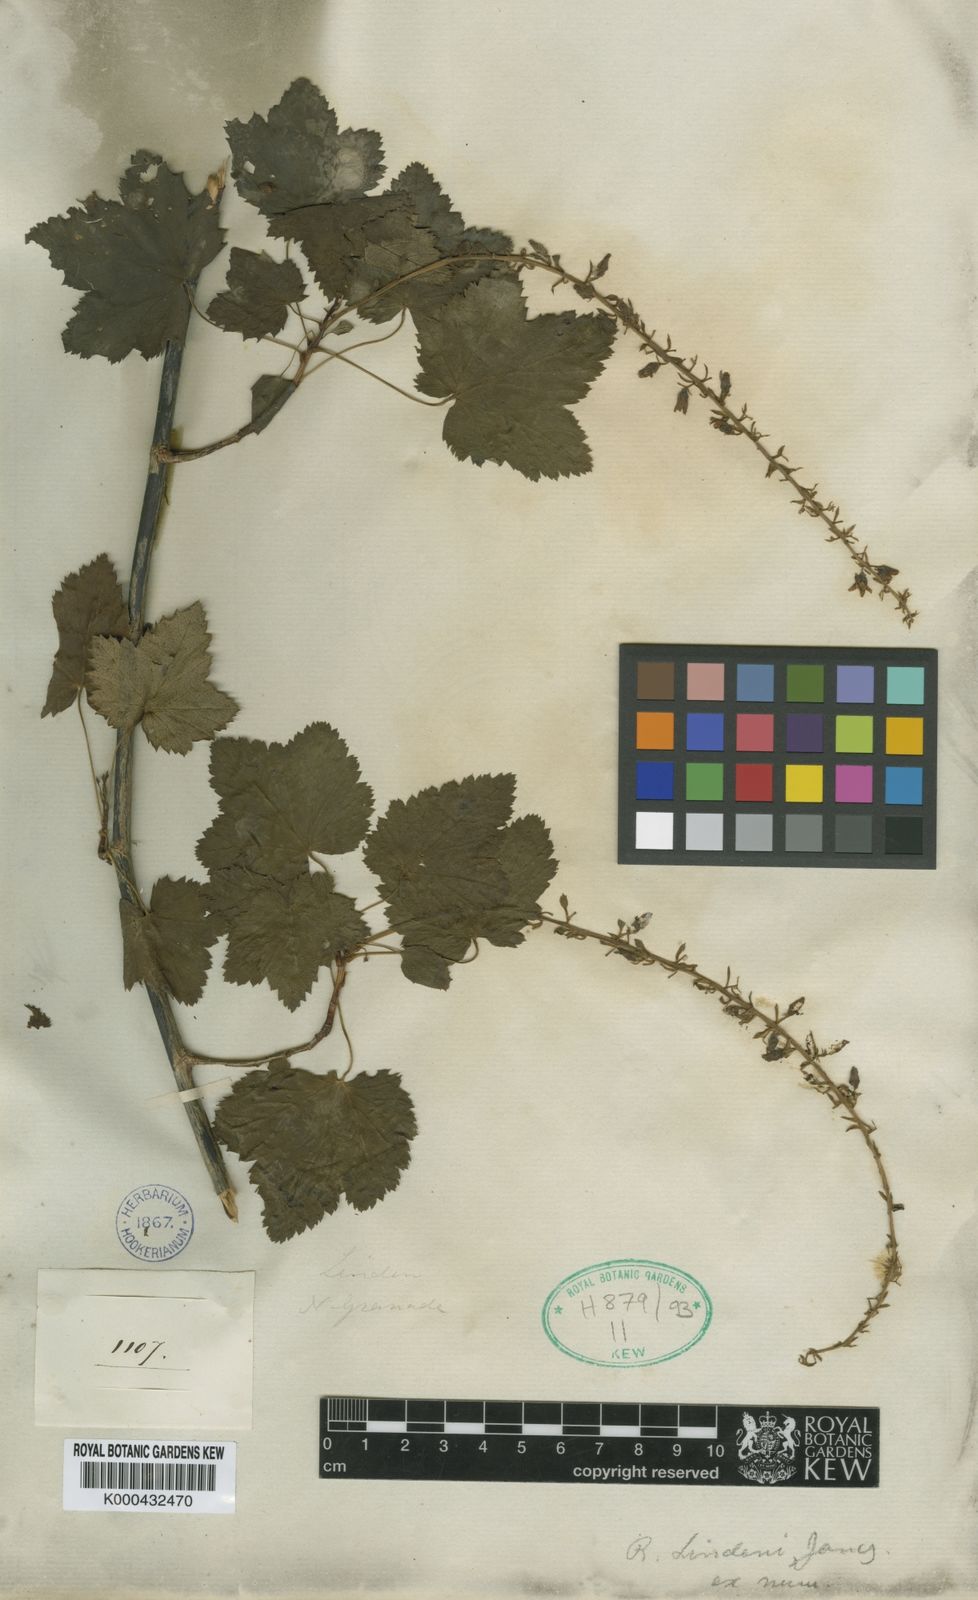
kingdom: Plantae
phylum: Tracheophyta
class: Magnoliopsida
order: Saxifragales
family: Grossulariaceae
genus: Ribes
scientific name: Ribes ecuadorense
